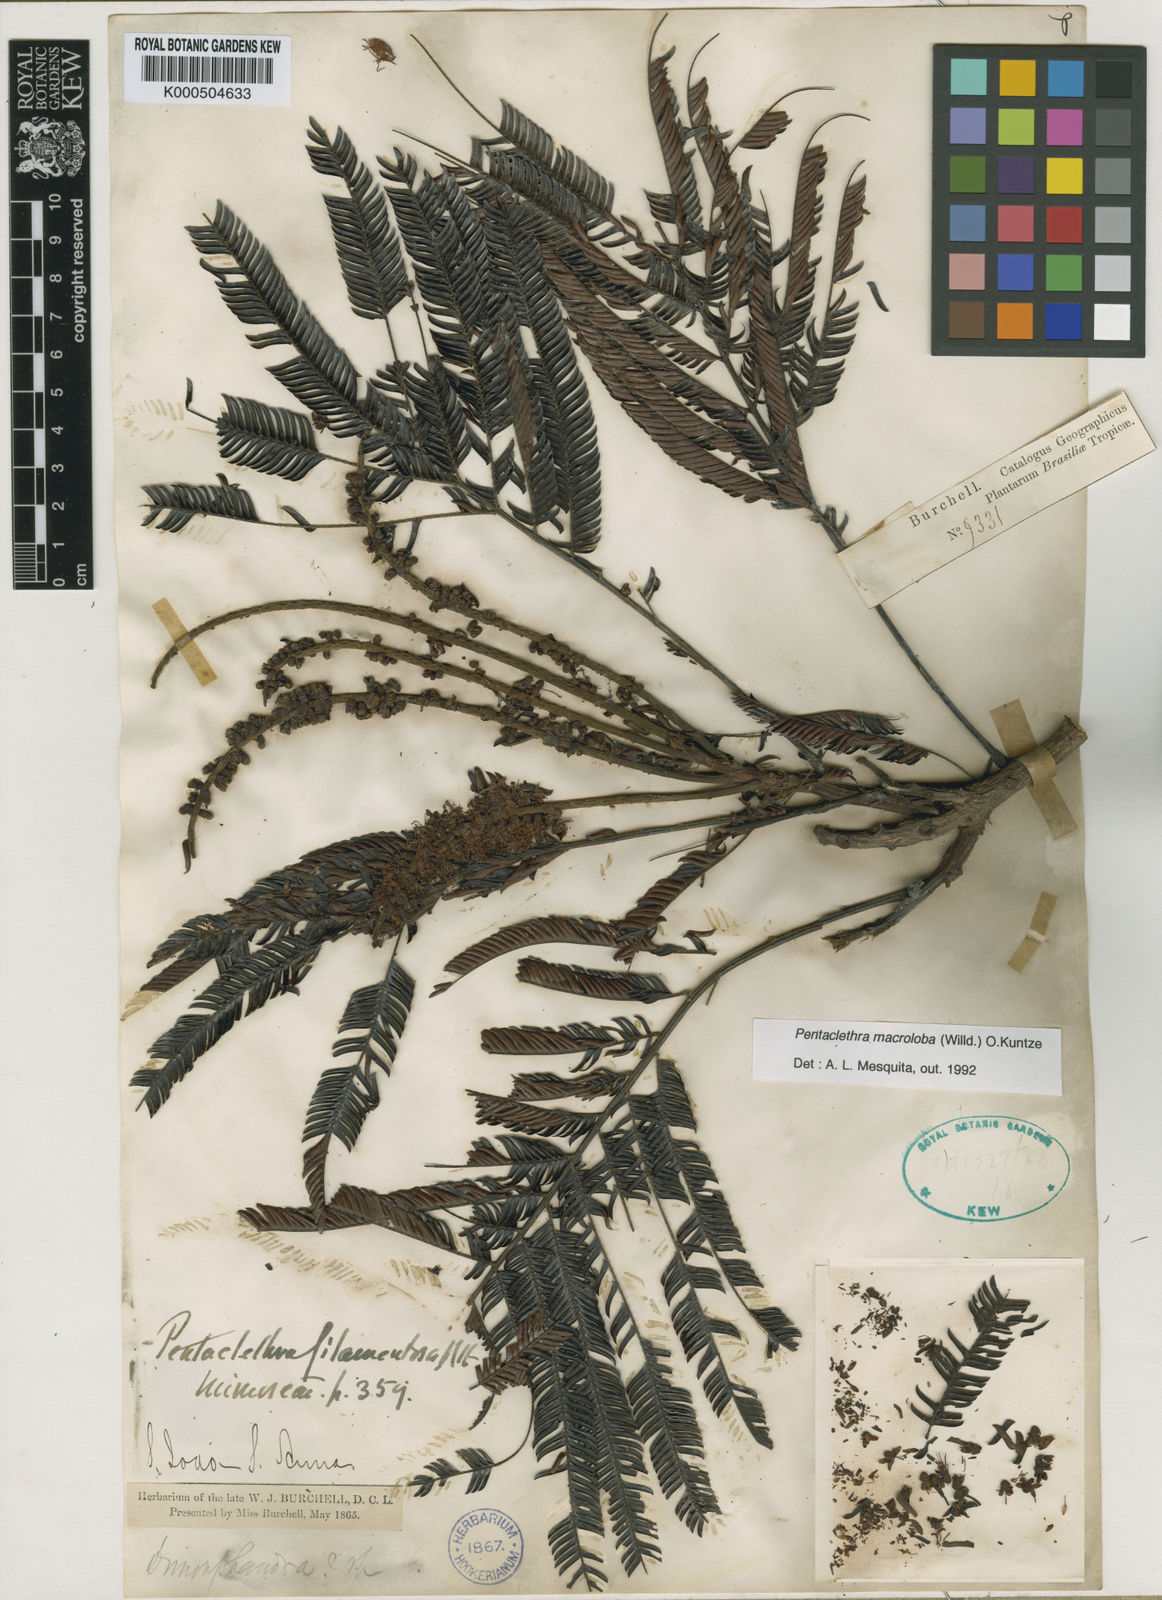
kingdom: Plantae
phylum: Tracheophyta
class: Magnoliopsida
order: Fabales
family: Fabaceae
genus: Pentaclethra
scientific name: Pentaclethra macroloba
